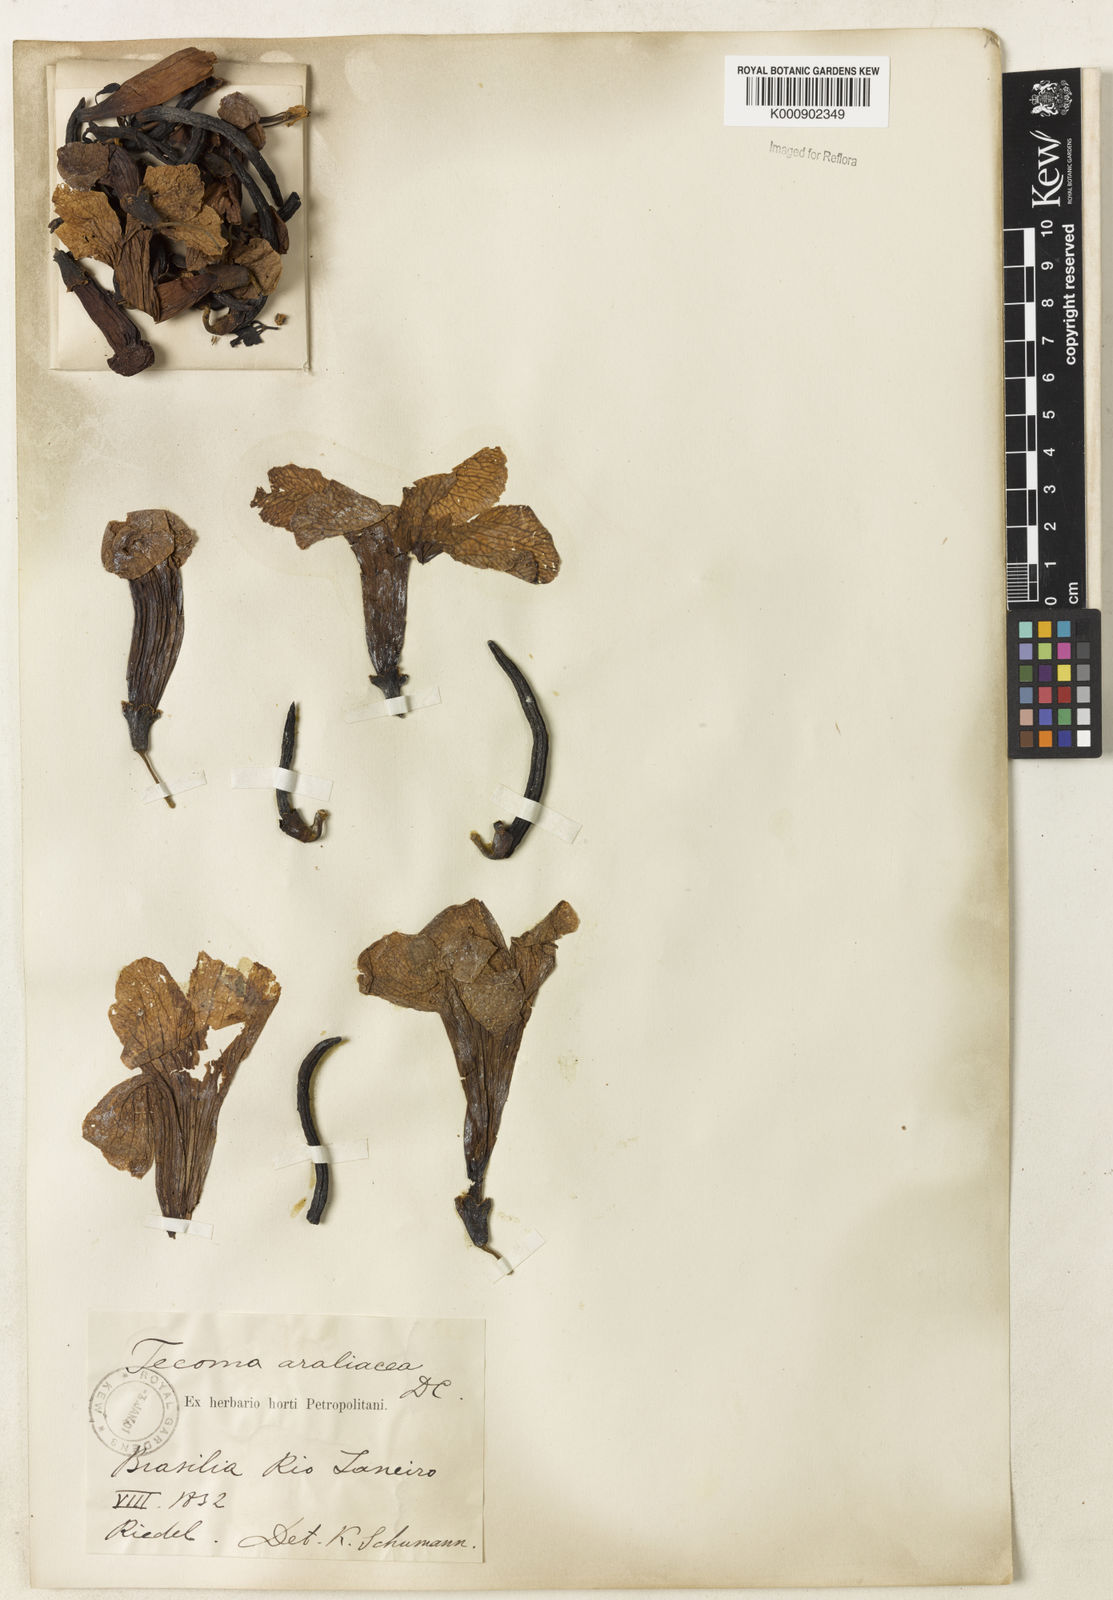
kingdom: Plantae
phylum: Tracheophyta
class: Magnoliopsida
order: Lamiales
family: Bignoniaceae
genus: Handroanthus
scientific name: Handroanthus serratifolius
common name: Yellow ipe
